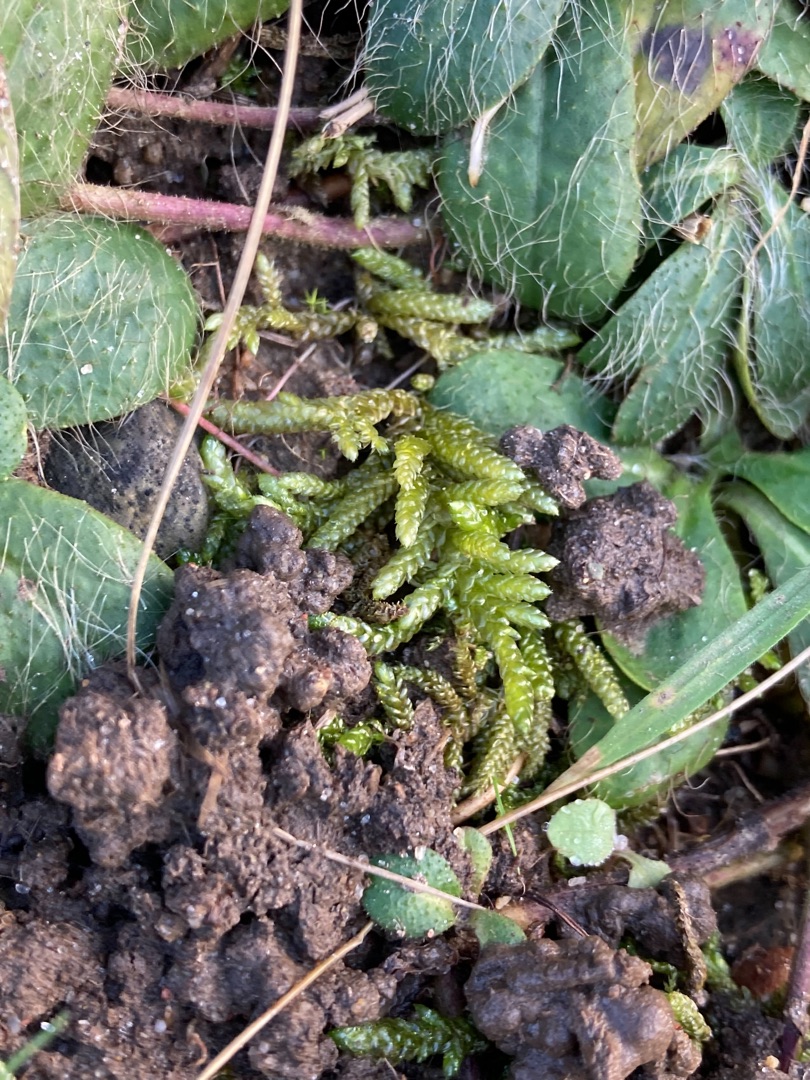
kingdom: Plantae
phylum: Bryophyta
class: Bryopsida
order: Hypnales
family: Brachytheciaceae
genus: Pseudoscleropodium
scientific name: Pseudoscleropodium purum
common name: Hulbladet fedtmos
